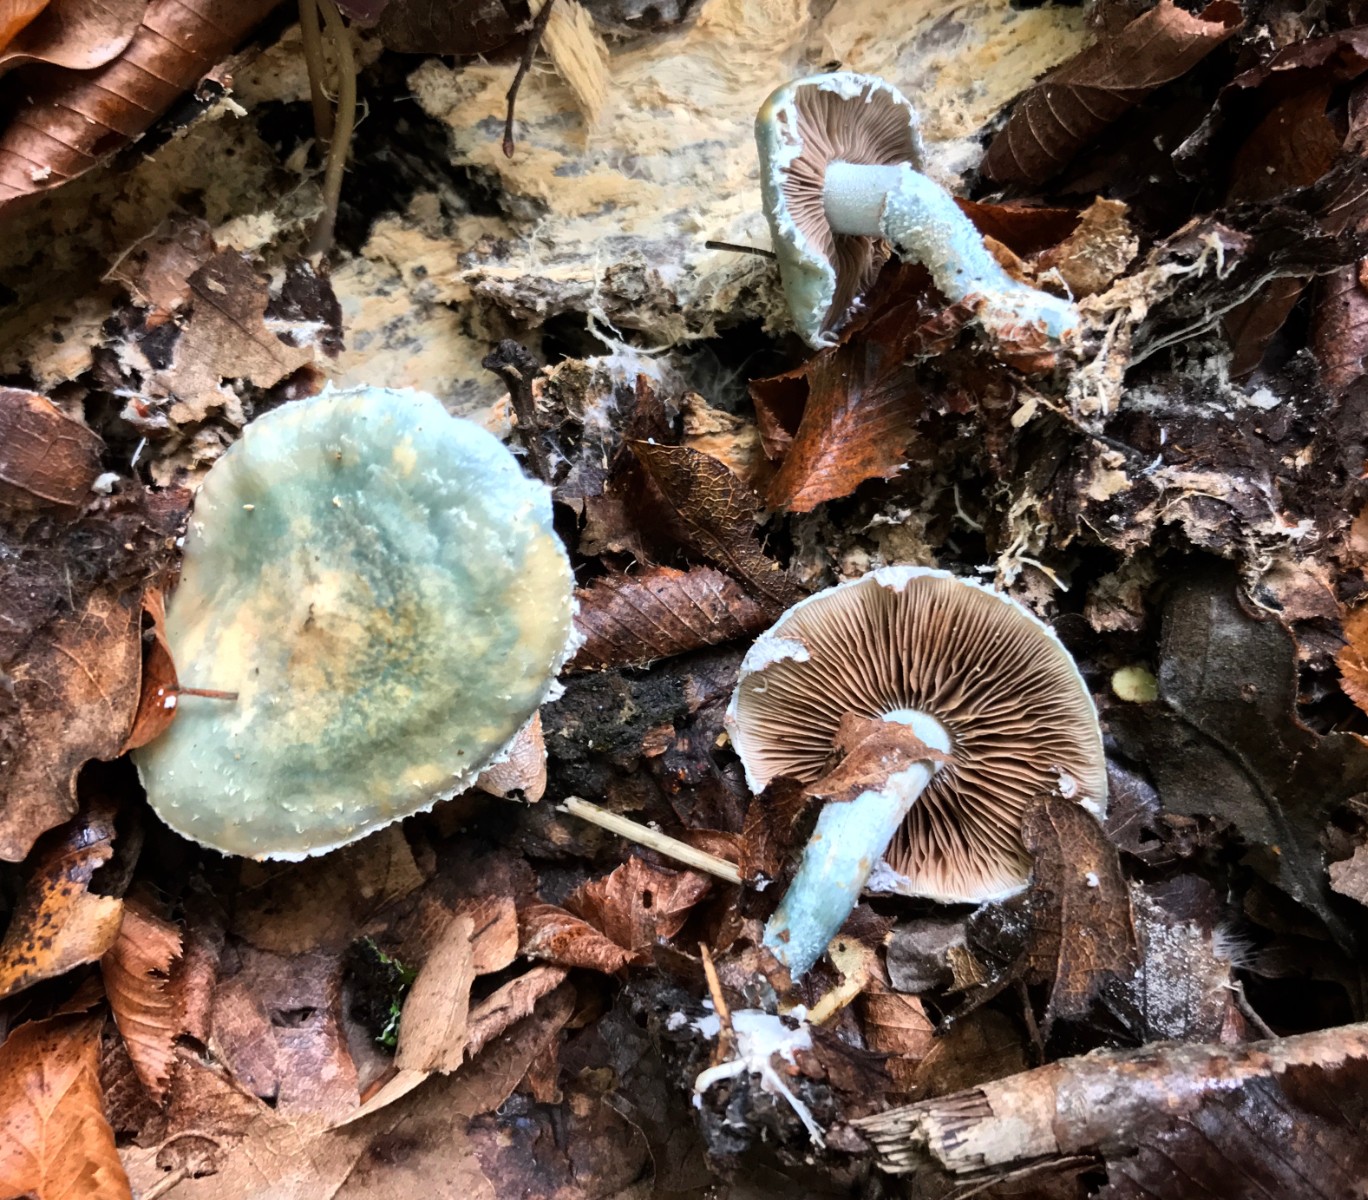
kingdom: Fungi
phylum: Basidiomycota
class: Agaricomycetes
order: Agaricales
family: Strophariaceae
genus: Stropharia
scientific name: Stropharia cyanea
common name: blågrøn bredblad
